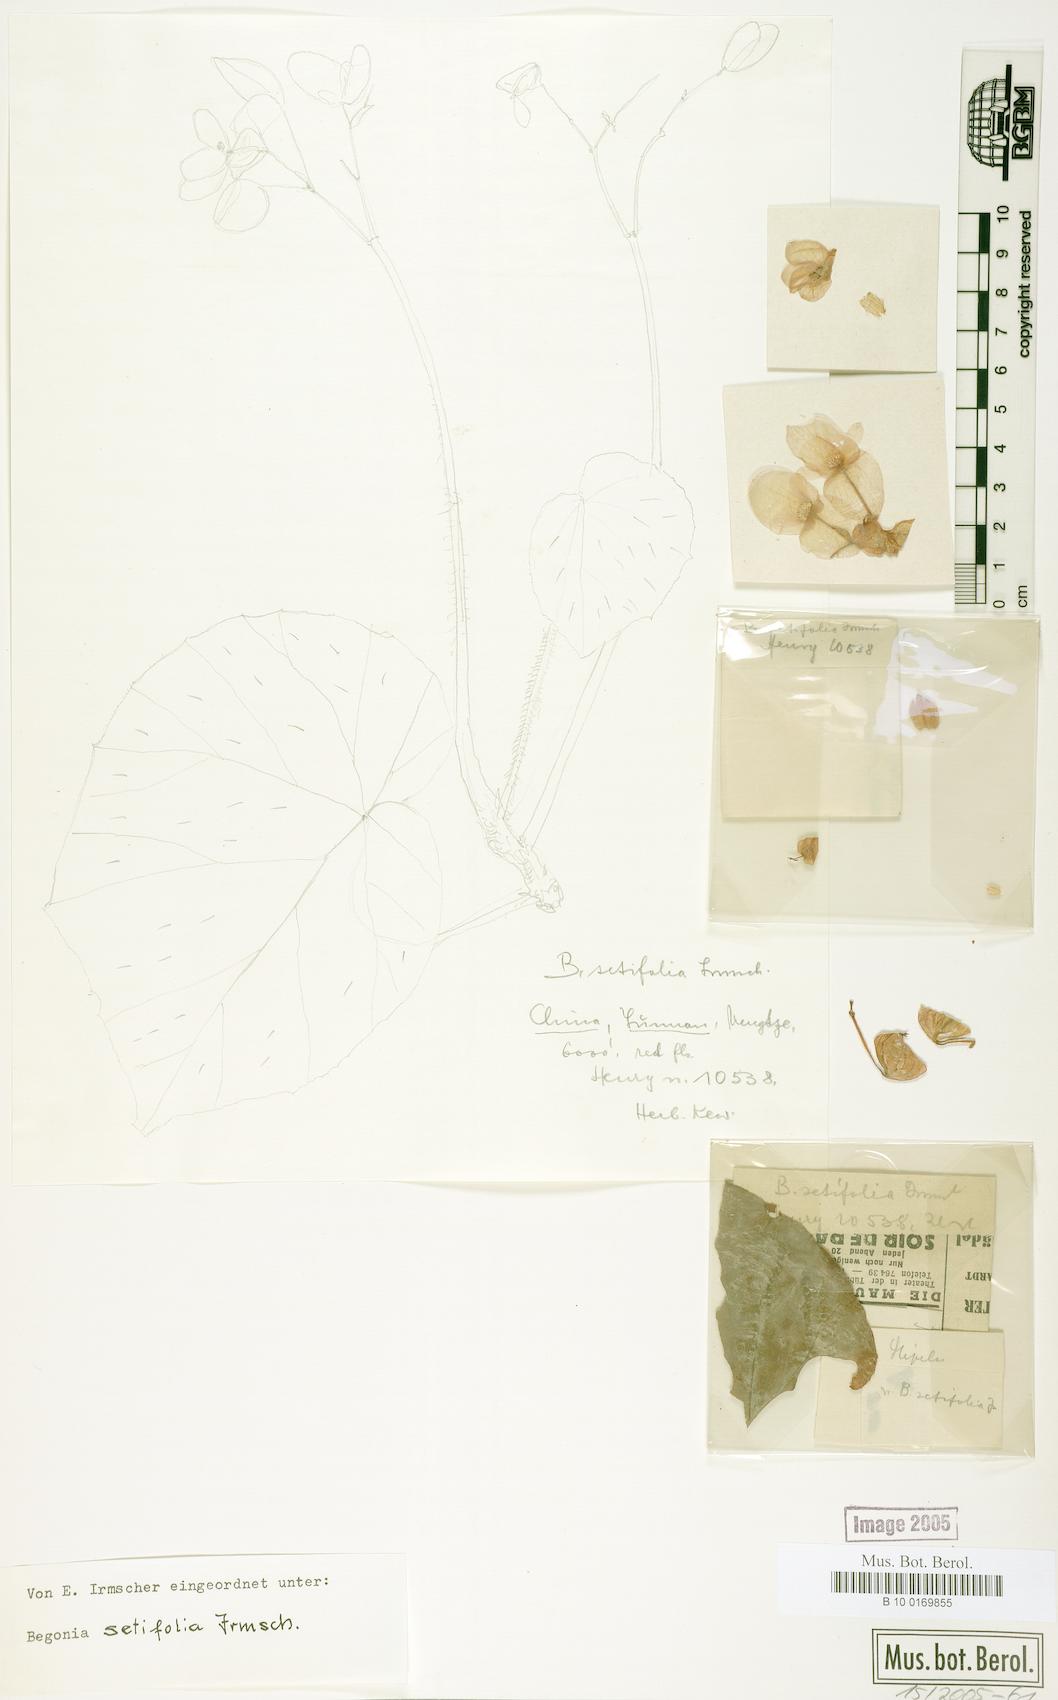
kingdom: Plantae
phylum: Tracheophyta
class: Magnoliopsida
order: Cucurbitales
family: Begoniaceae
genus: Begonia
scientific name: Begonia setifolia
